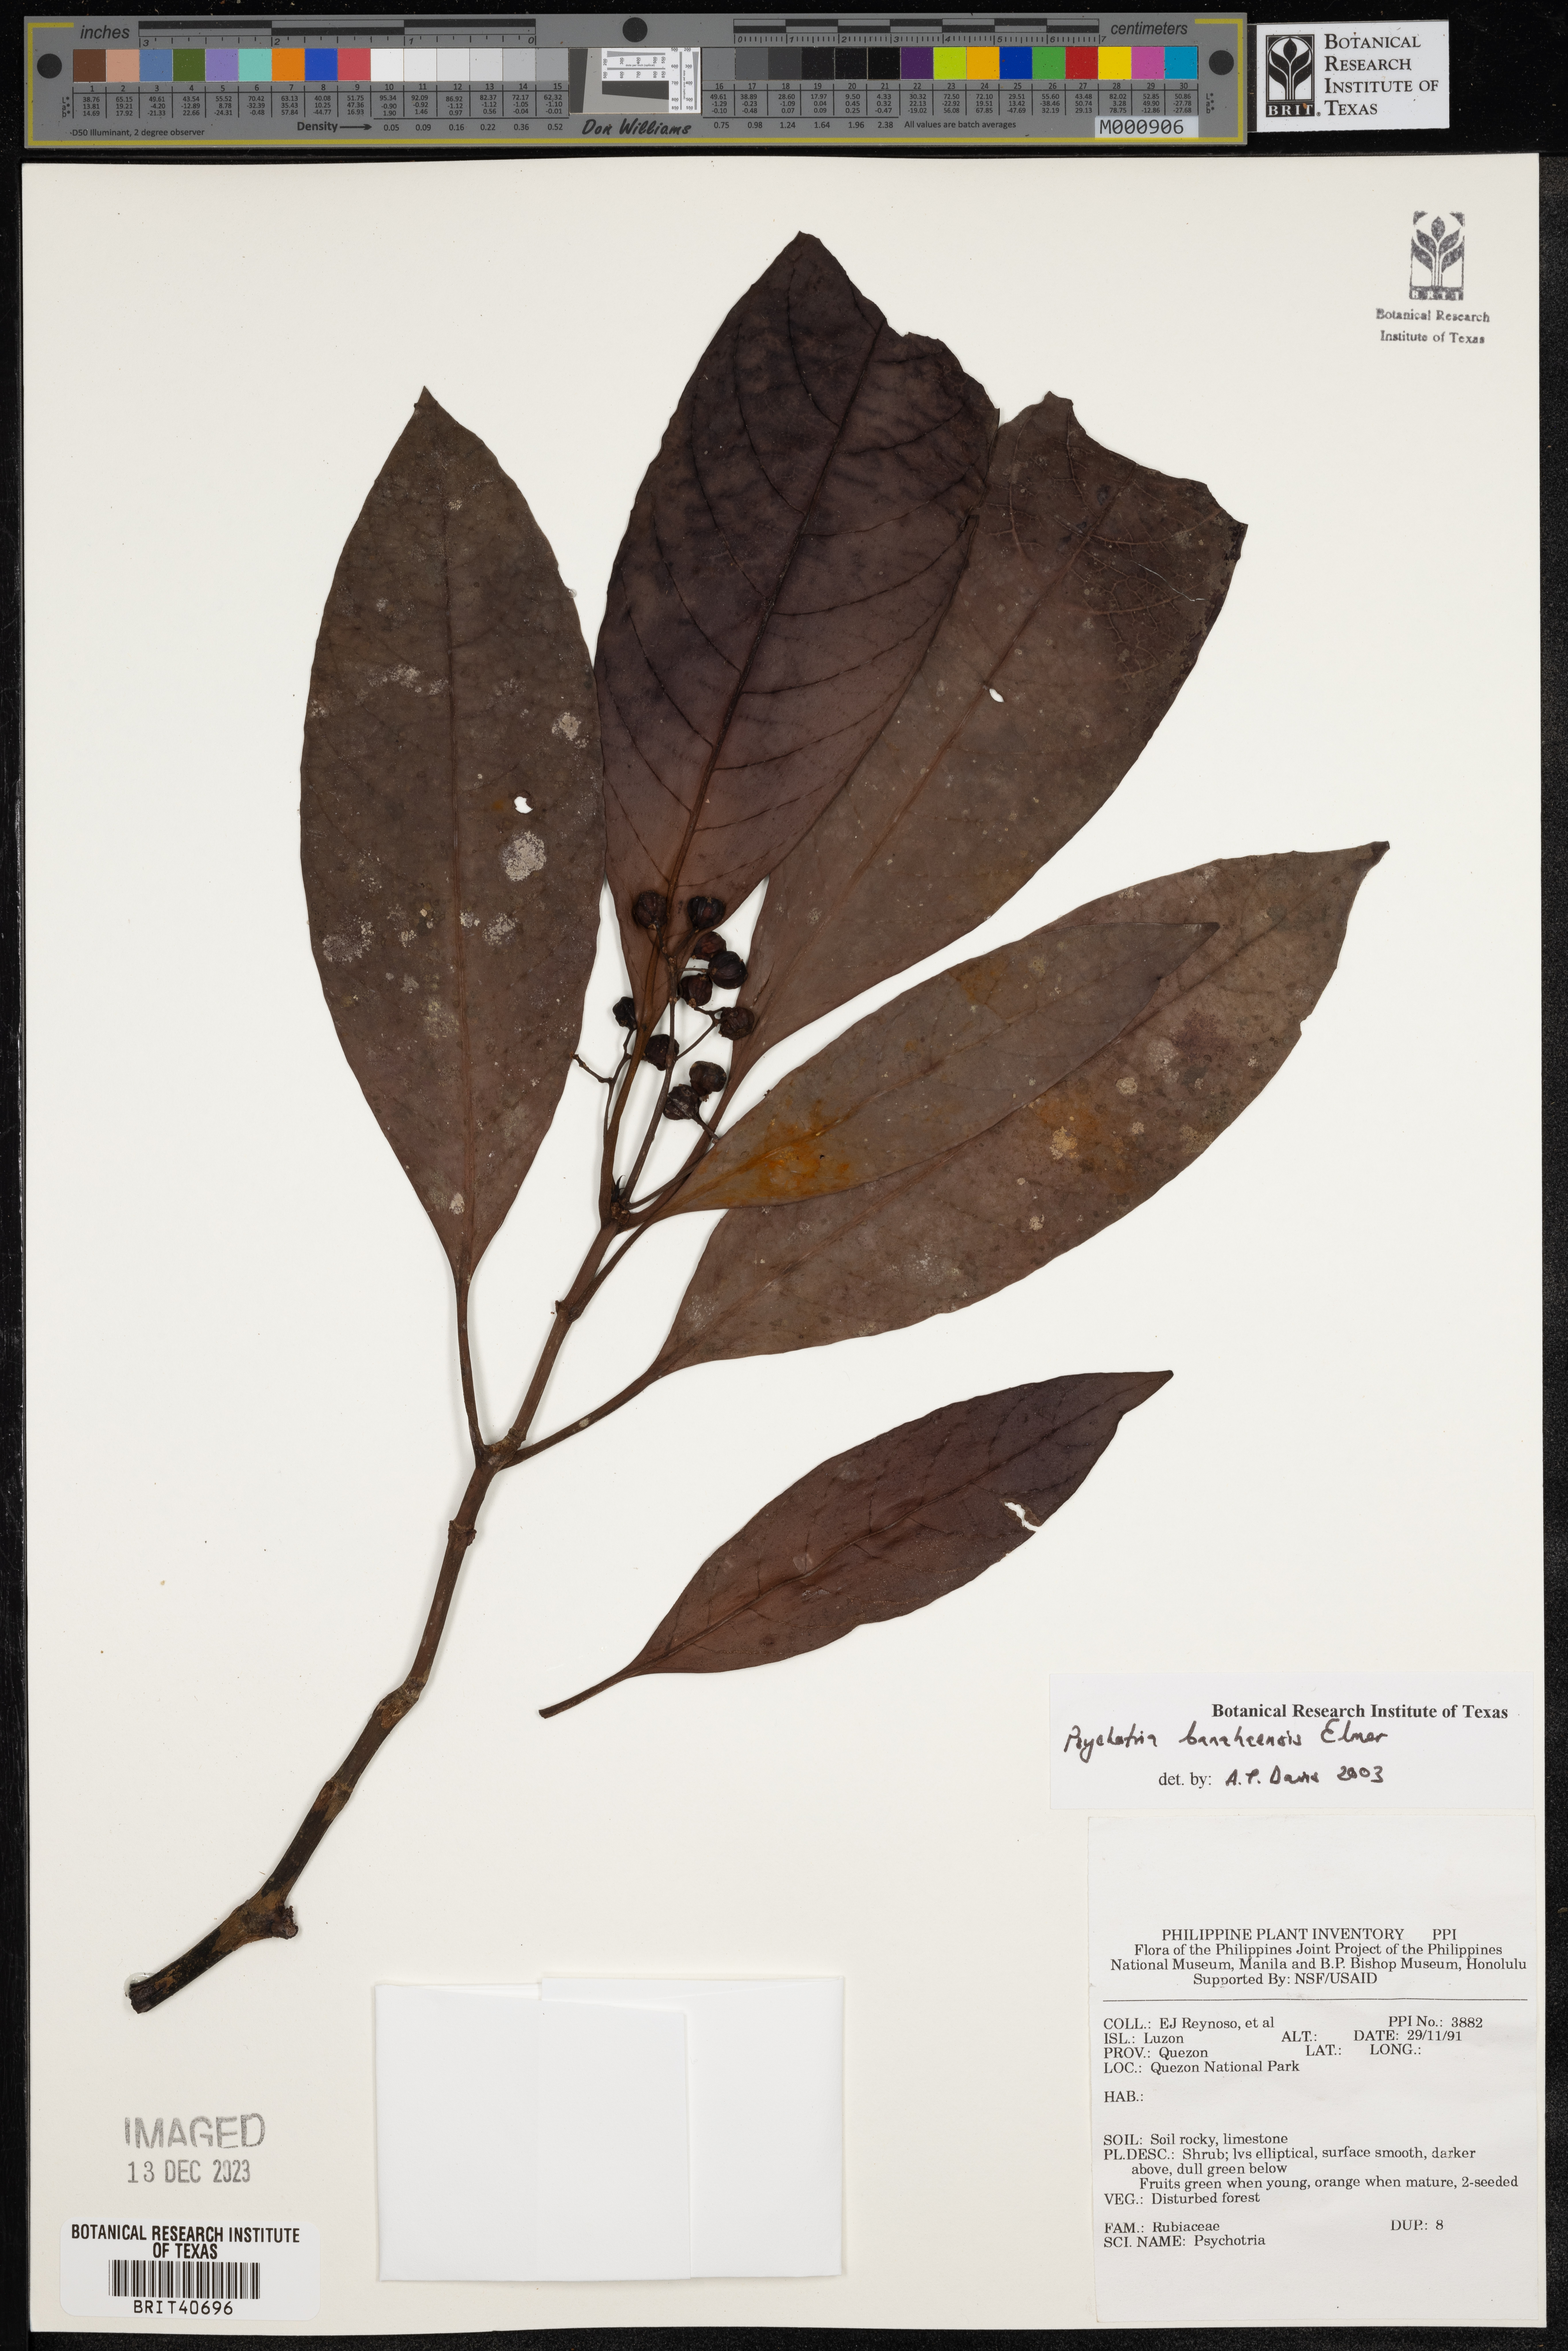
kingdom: Plantae
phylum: Tracheophyta
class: Magnoliopsida
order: Gentianales
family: Rubiaceae
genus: Psychotria
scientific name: Psychotria banahaensis
